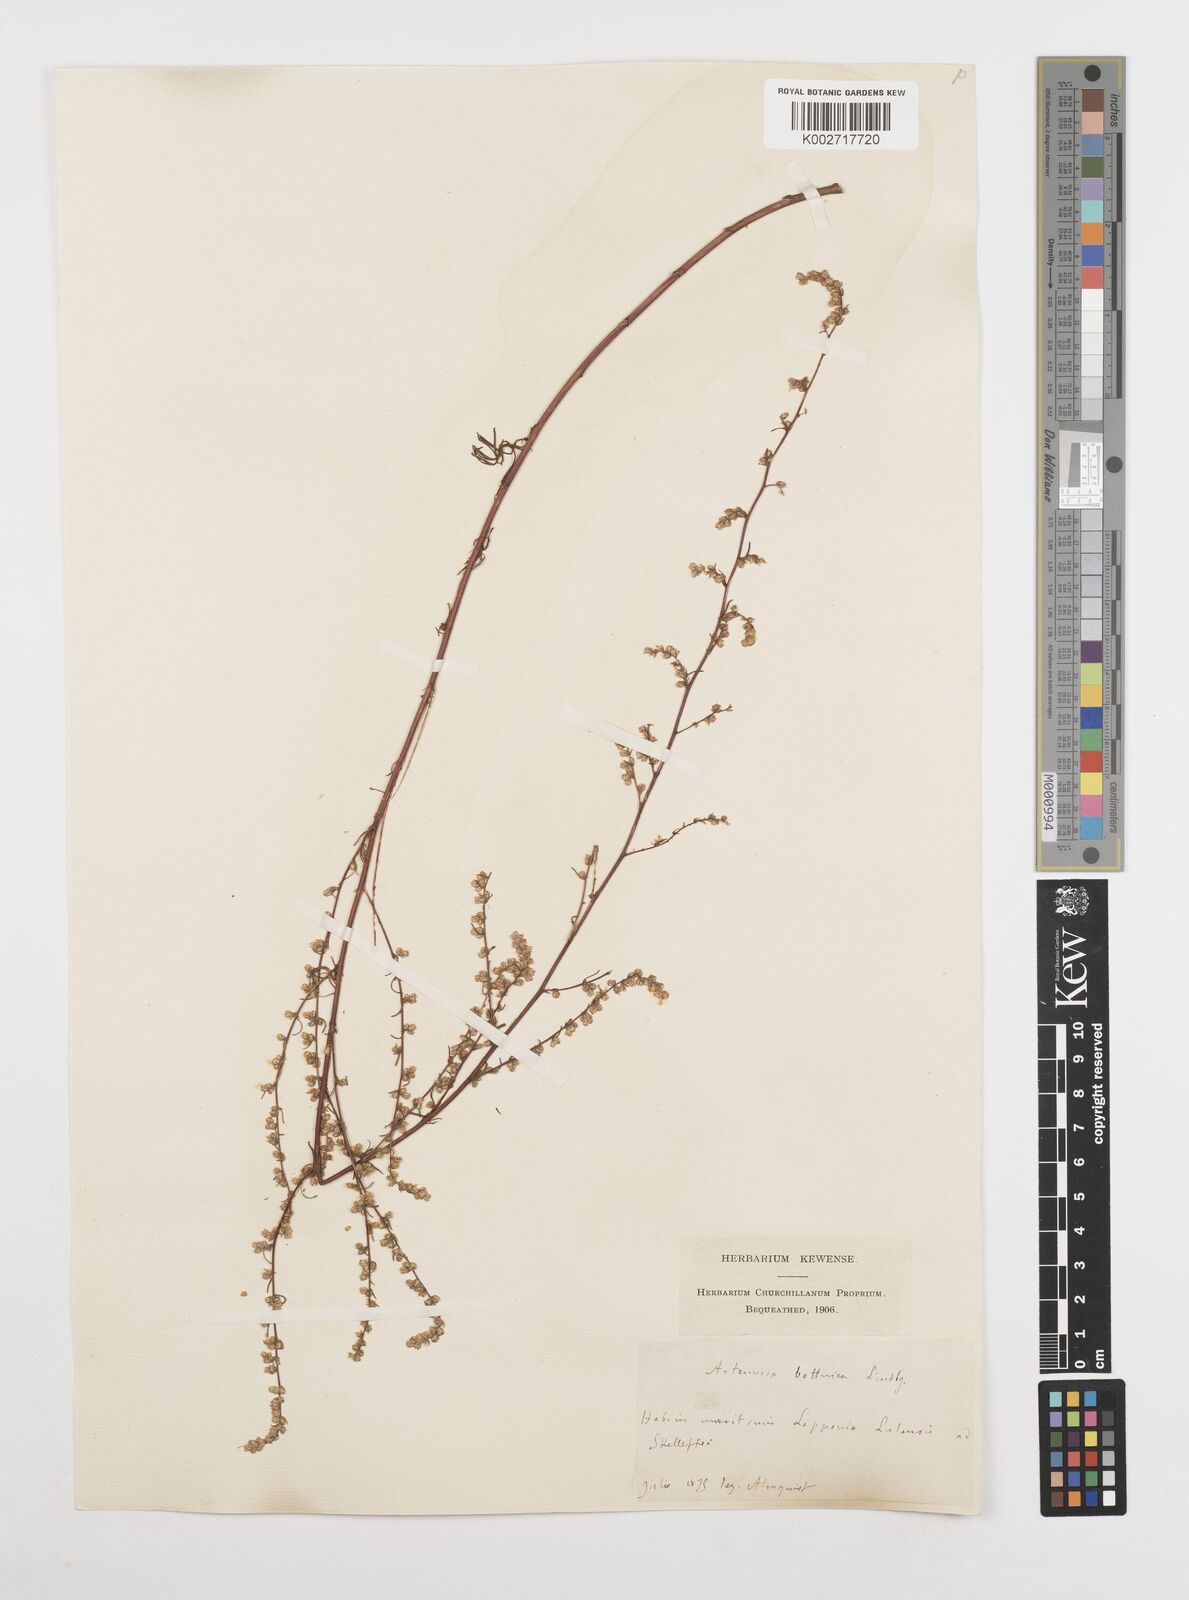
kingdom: Plantae
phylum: Tracheophyta
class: Magnoliopsida
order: Asterales
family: Asteraceae
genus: Artemisia
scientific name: Artemisia campestris
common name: Field wormwood
